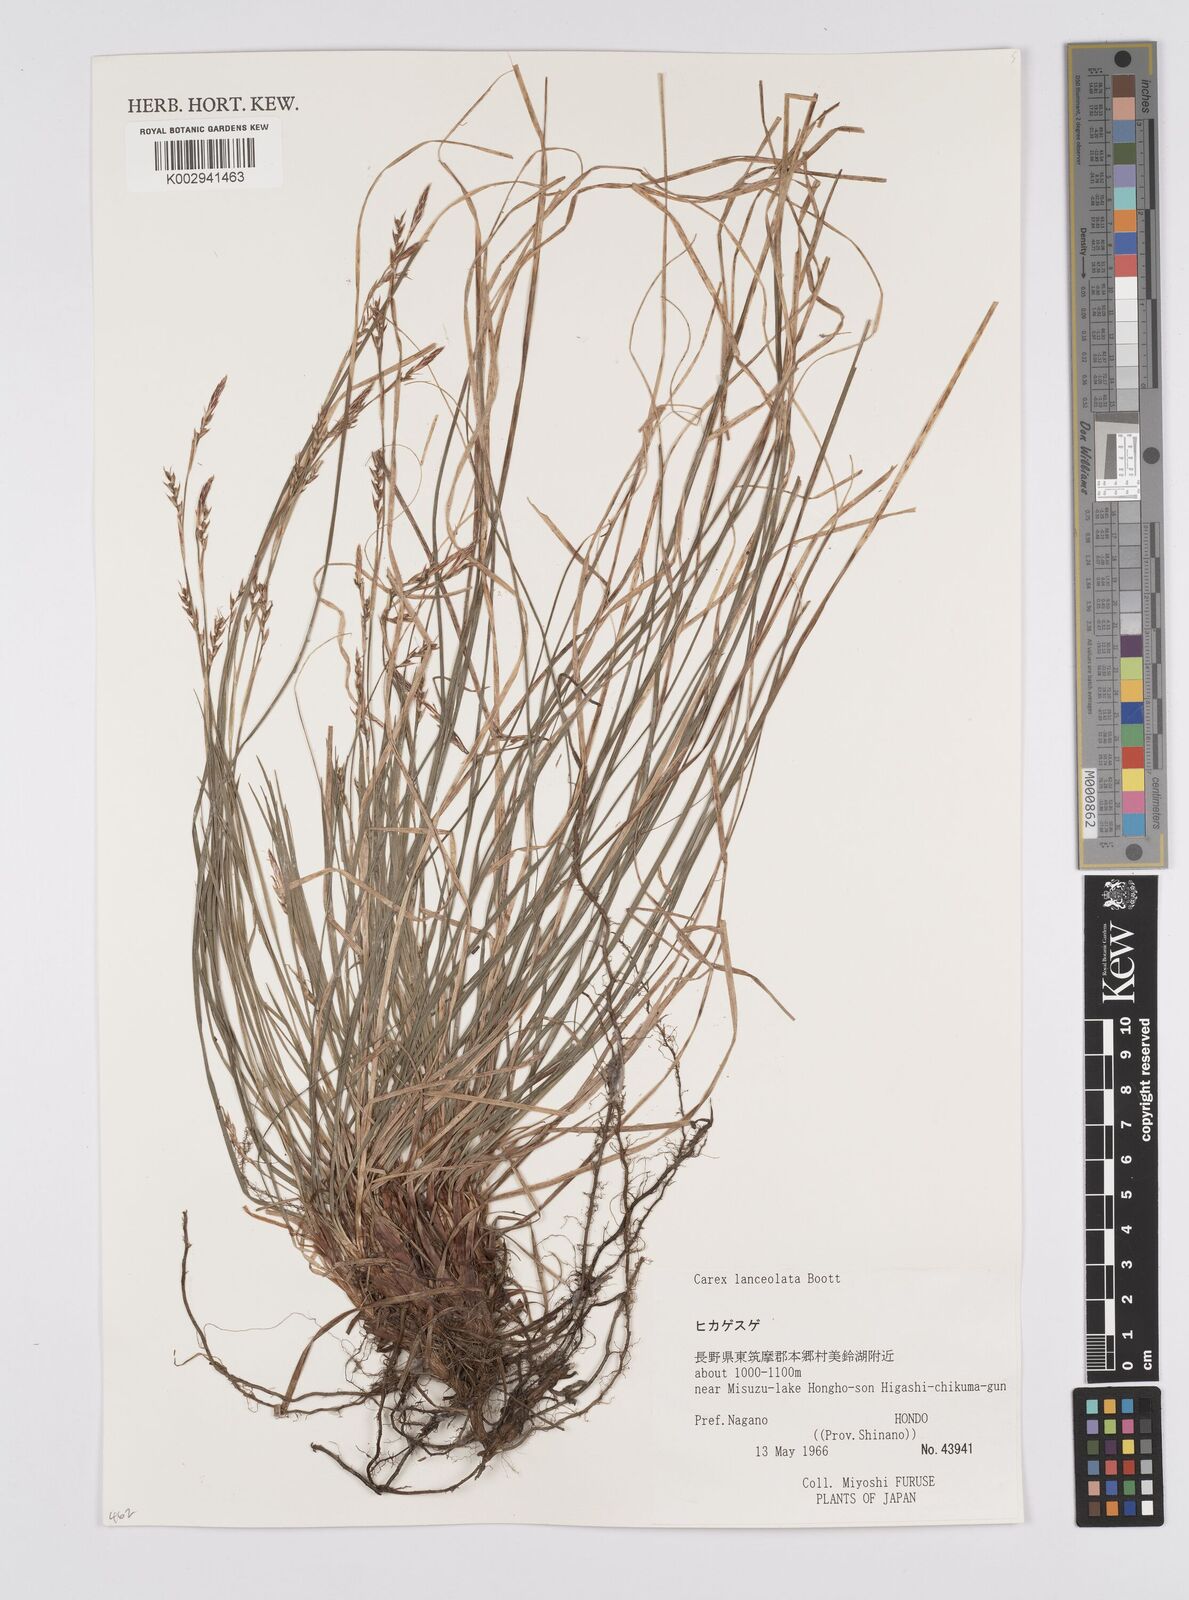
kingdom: Plantae
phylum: Tracheophyta
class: Liliopsida
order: Poales
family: Cyperaceae
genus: Carex
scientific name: Carex lanceolata
